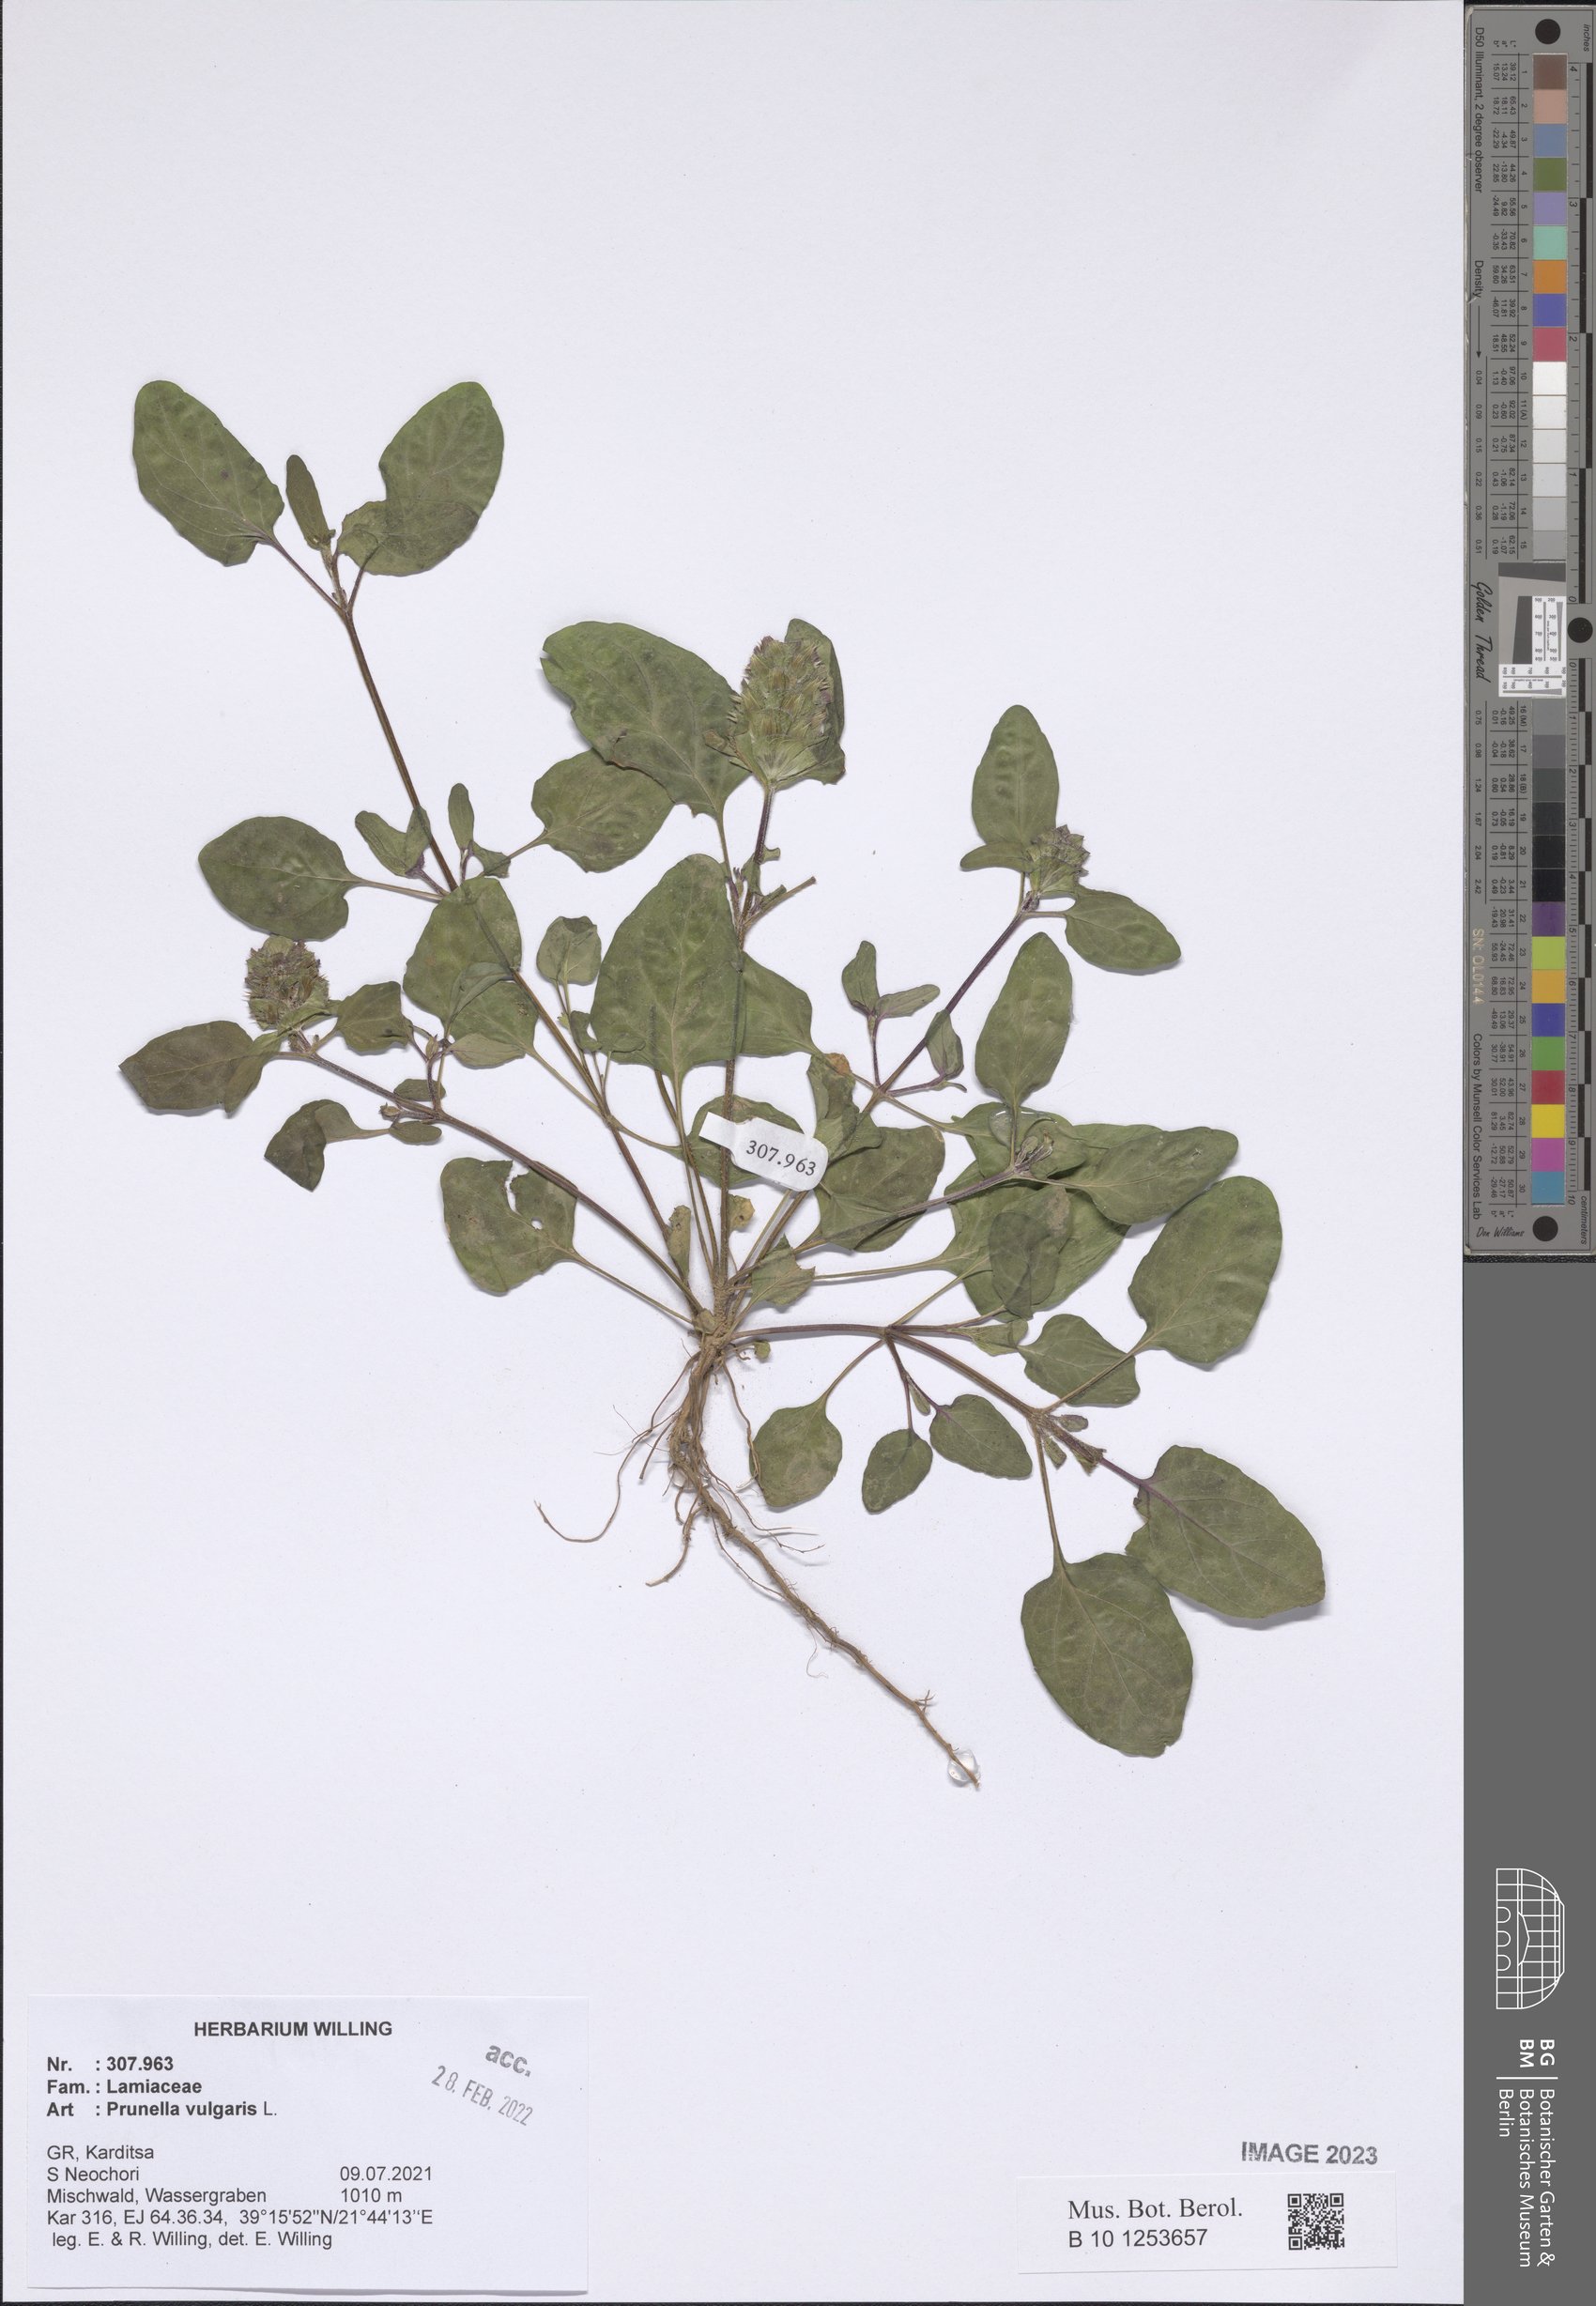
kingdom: Plantae
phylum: Tracheophyta
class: Magnoliopsida
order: Lamiales
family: Lamiaceae
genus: Prunella
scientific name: Prunella vulgaris
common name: Heal-all
